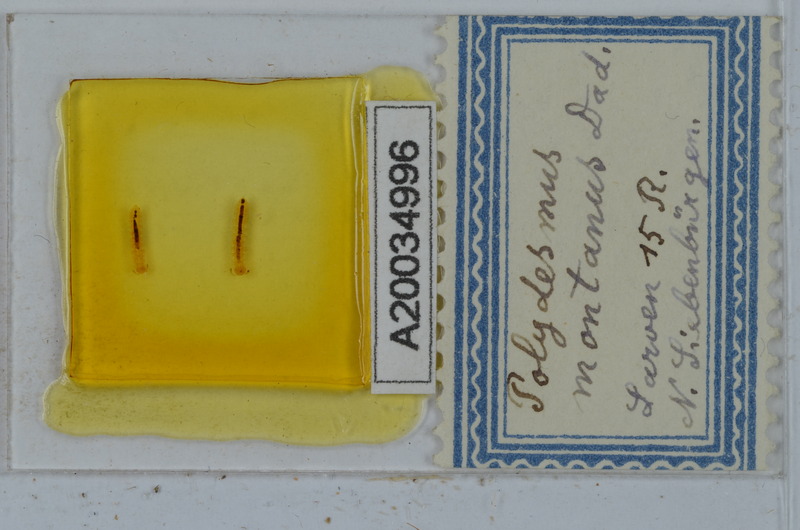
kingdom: Animalia
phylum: Arthropoda
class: Diplopoda
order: Polydesmida
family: Polydesmidae
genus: Polydesmus
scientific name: Polydesmus montanus
